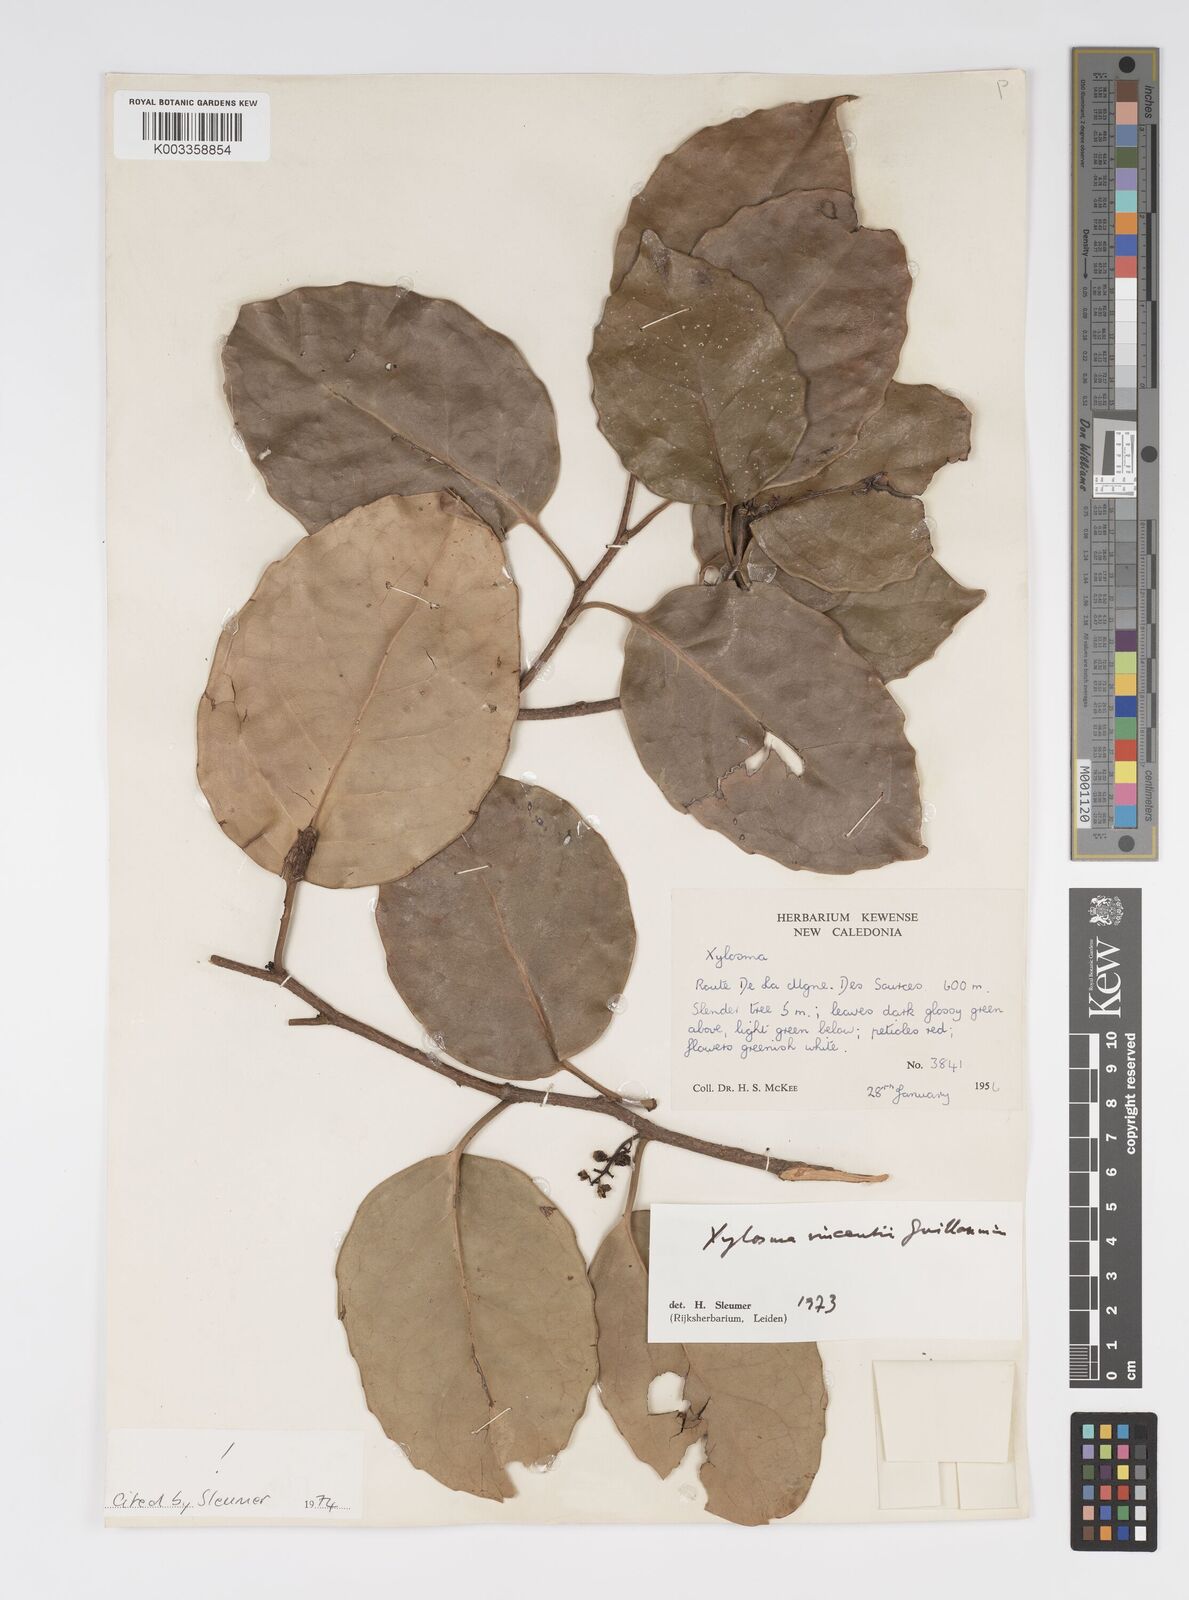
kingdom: Plantae
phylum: Tracheophyta
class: Magnoliopsida
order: Malpighiales
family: Salicaceae
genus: Xylosma
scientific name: Xylosma vincentii
